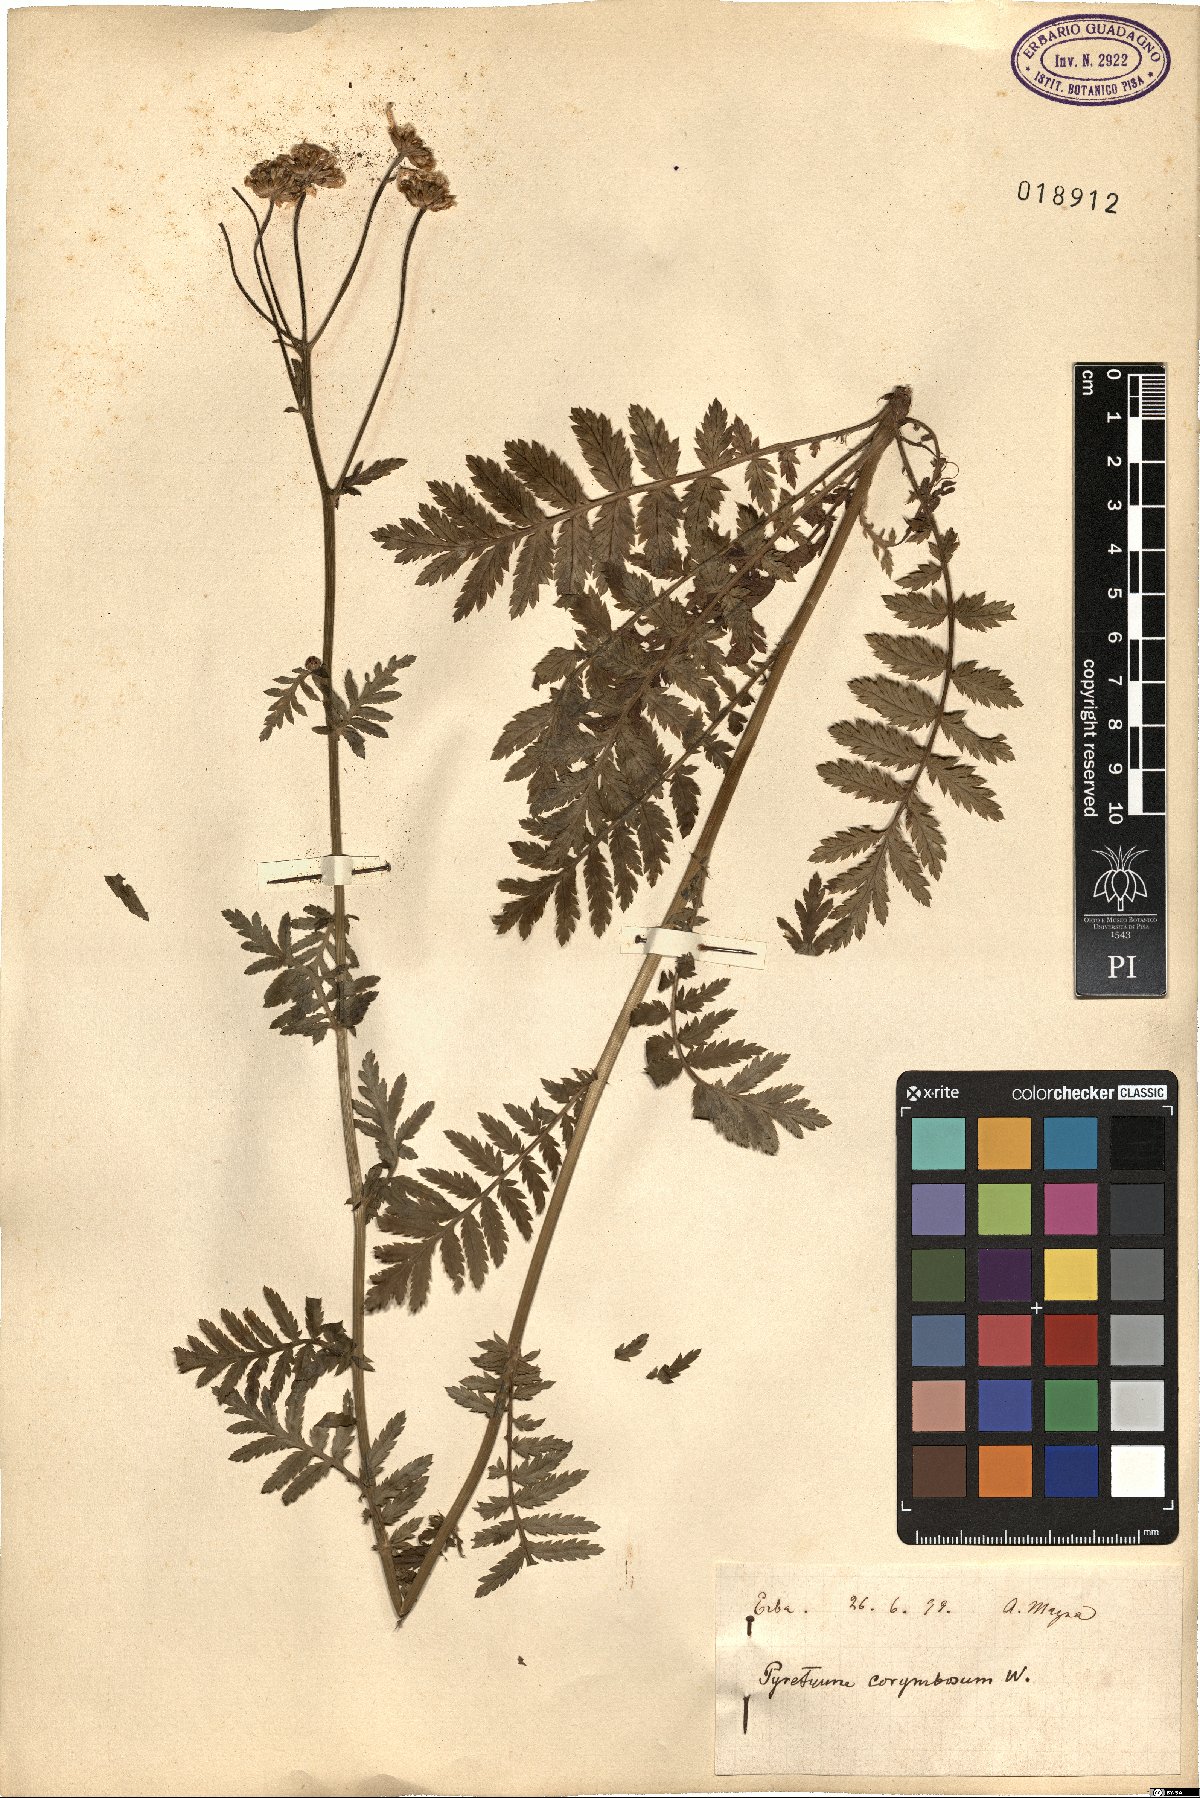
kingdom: Plantae
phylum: Tracheophyta
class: Magnoliopsida
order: Asterales
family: Asteraceae
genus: Tanacetum
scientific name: Tanacetum corymbosum
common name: Scentless feverfew
